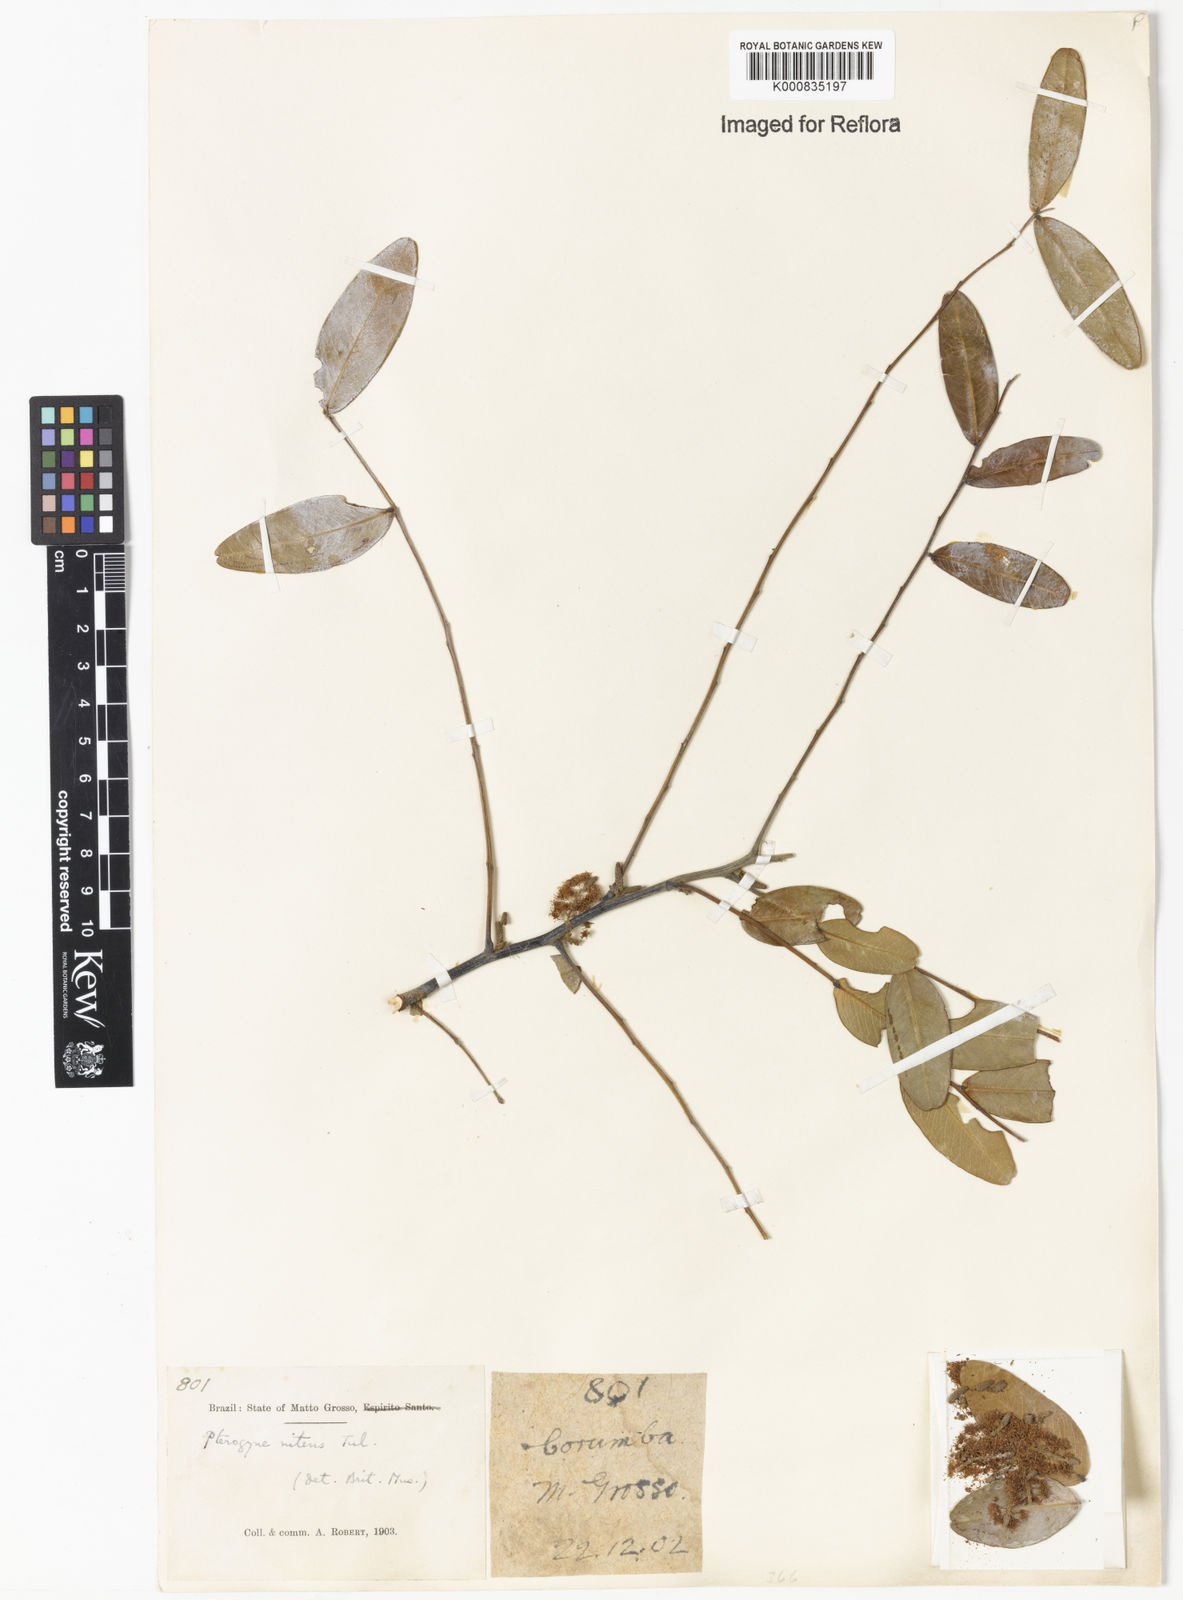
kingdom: Plantae
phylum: Tracheophyta
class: Magnoliopsida
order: Fabales
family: Fabaceae
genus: Pterogyne
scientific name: Pterogyne nitens
